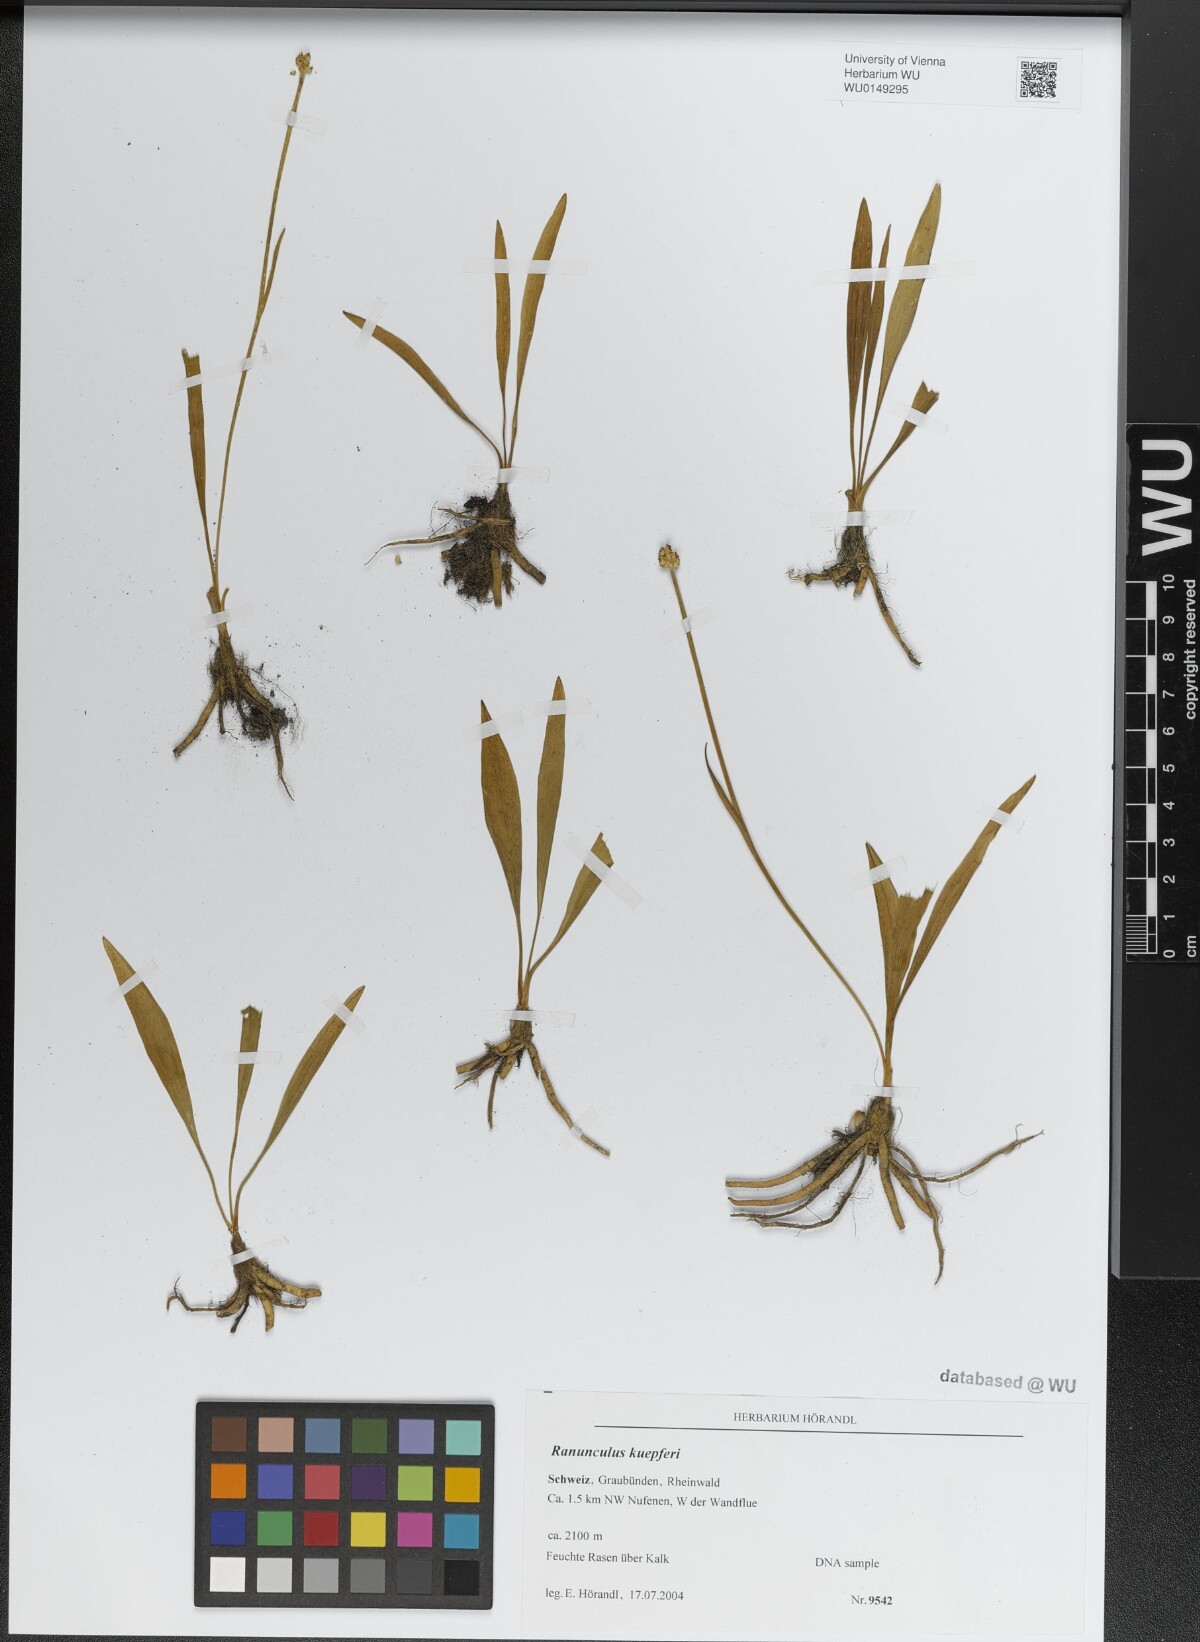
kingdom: Plantae
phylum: Tracheophyta
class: Magnoliopsida
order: Ranunculales
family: Ranunculaceae
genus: Ranunculus
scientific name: Ranunculus kuepferi
